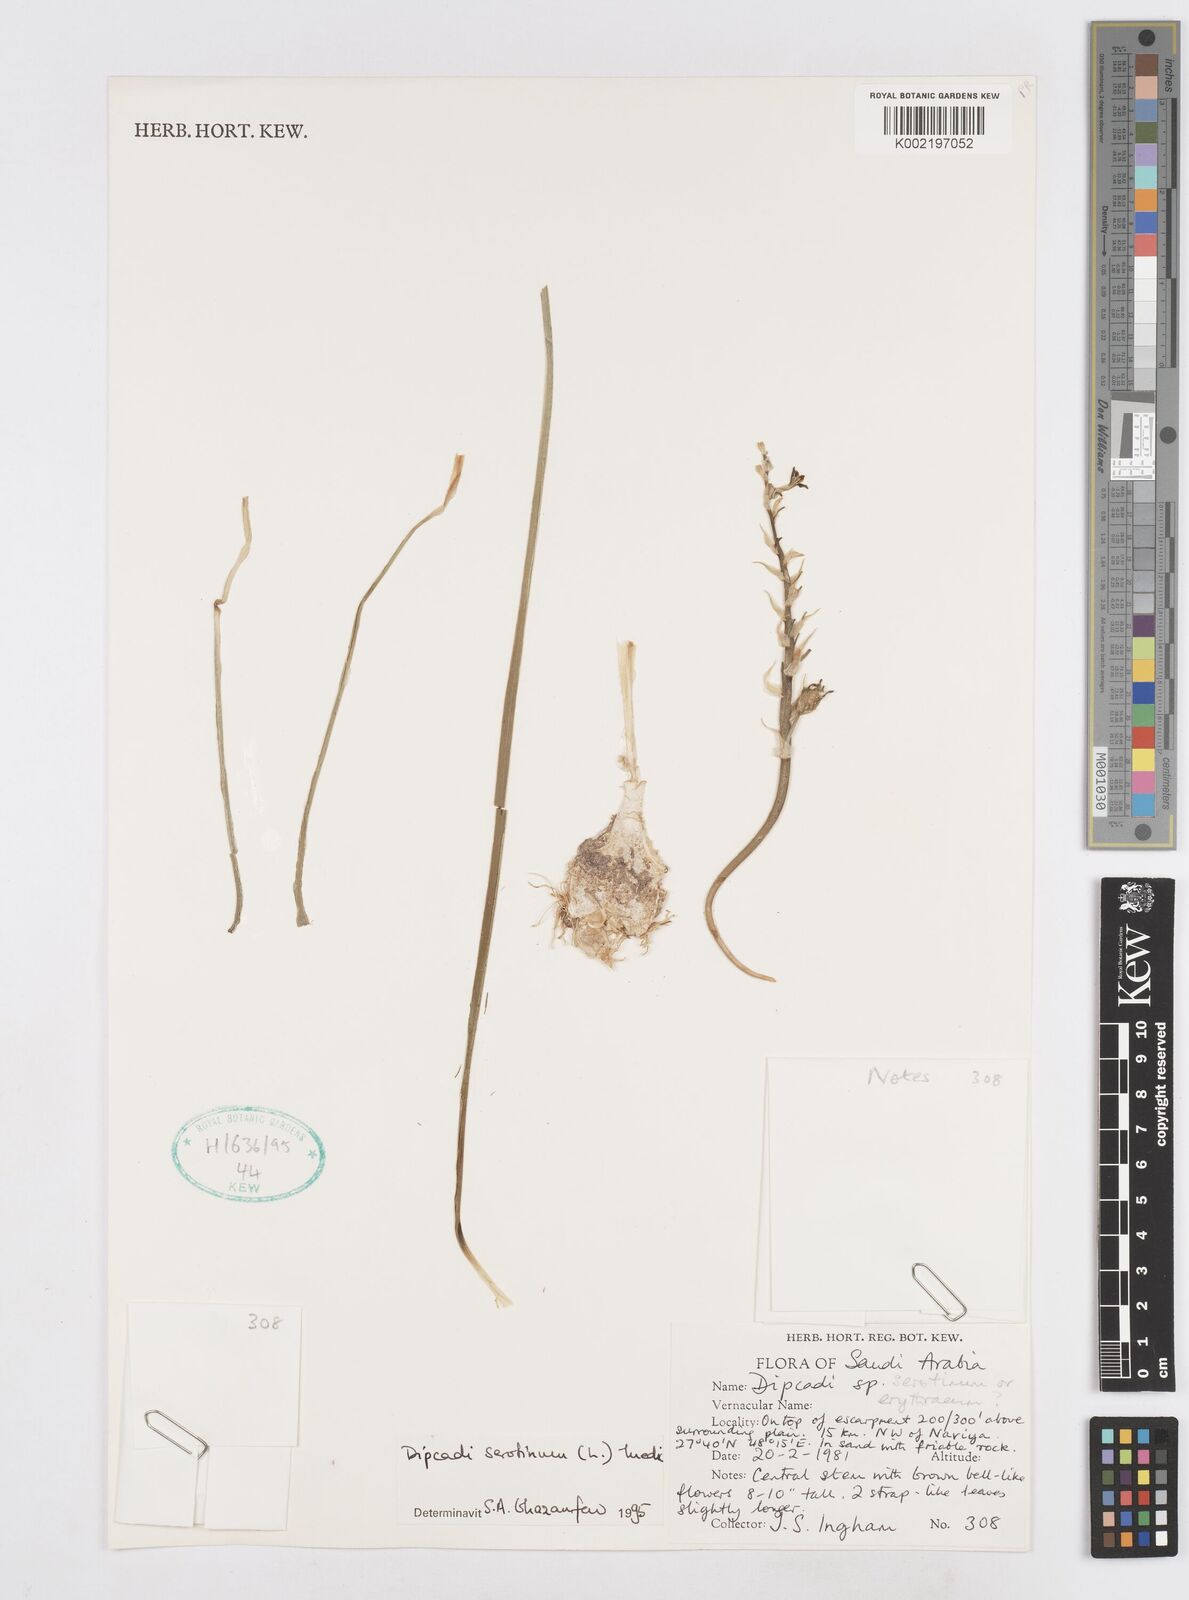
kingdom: Plantae
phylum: Tracheophyta
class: Liliopsida
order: Asparagales
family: Asparagaceae
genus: Dipcadi
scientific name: Dipcadi serotinum
